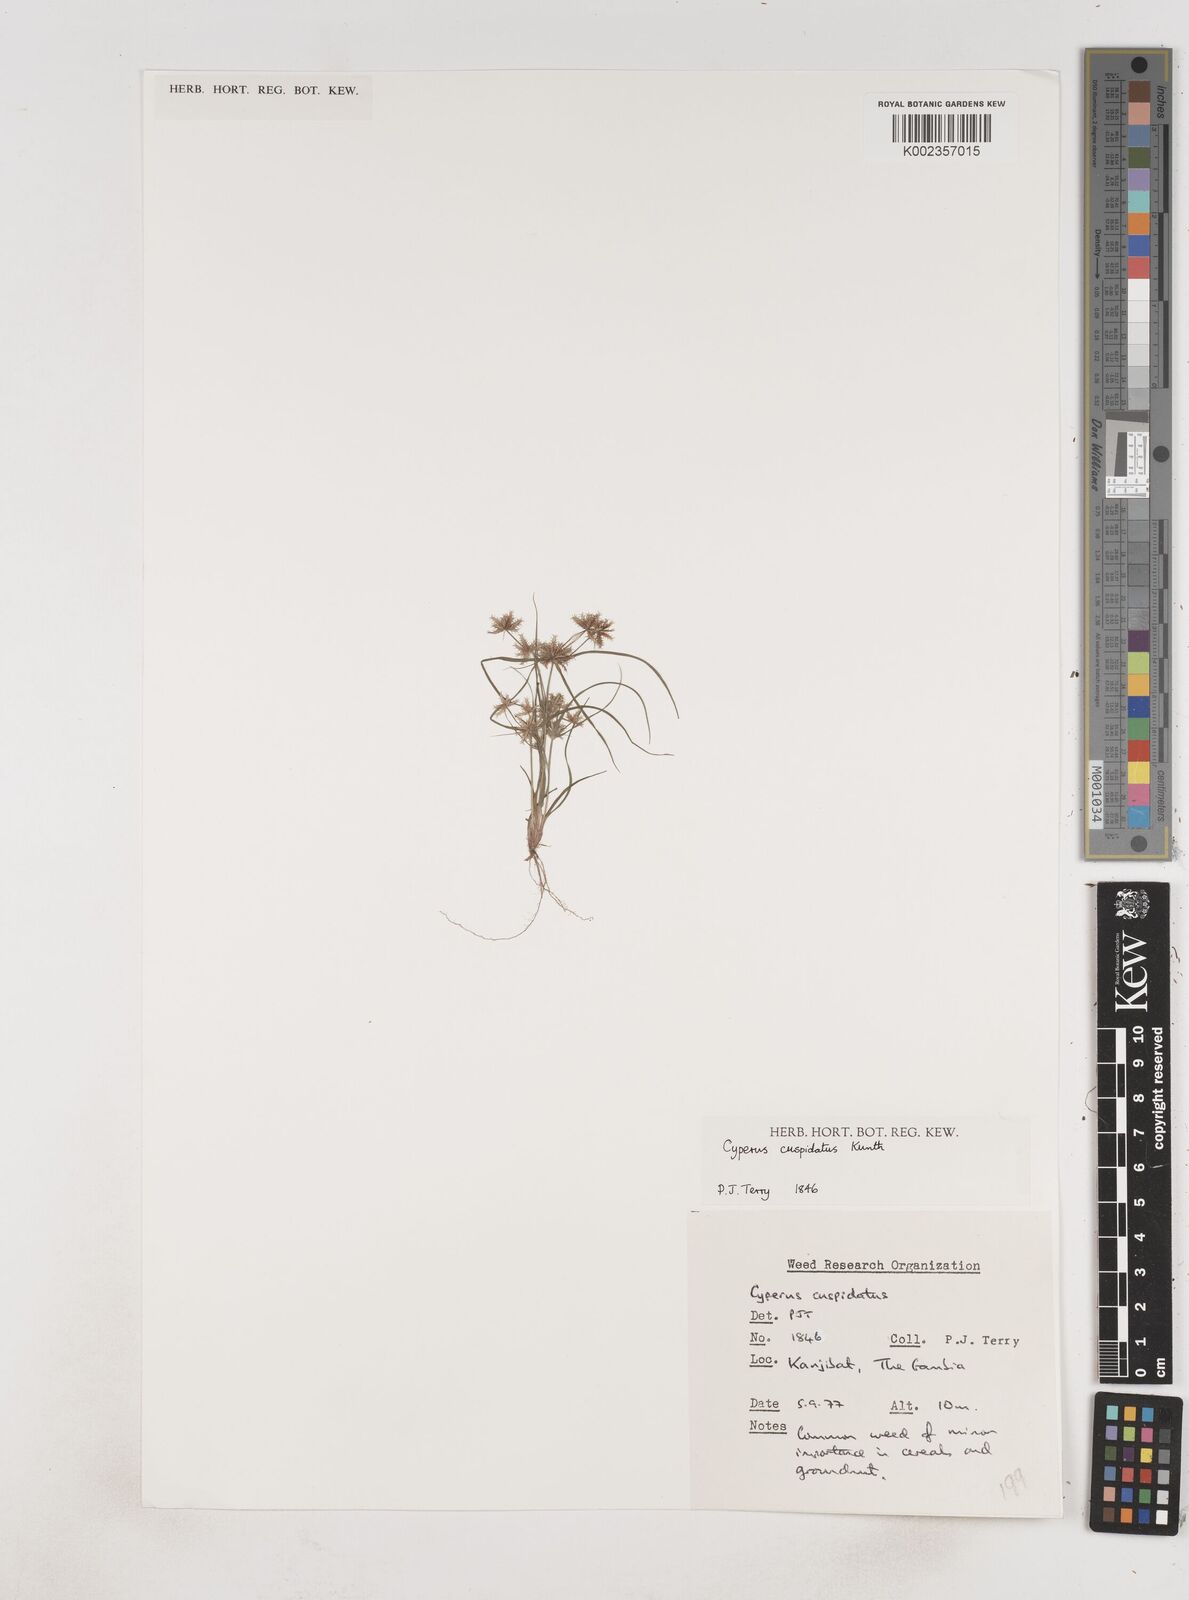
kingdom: Plantae
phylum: Tracheophyta
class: Liliopsida
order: Poales
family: Cyperaceae
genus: Cyperus
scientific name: Cyperus
